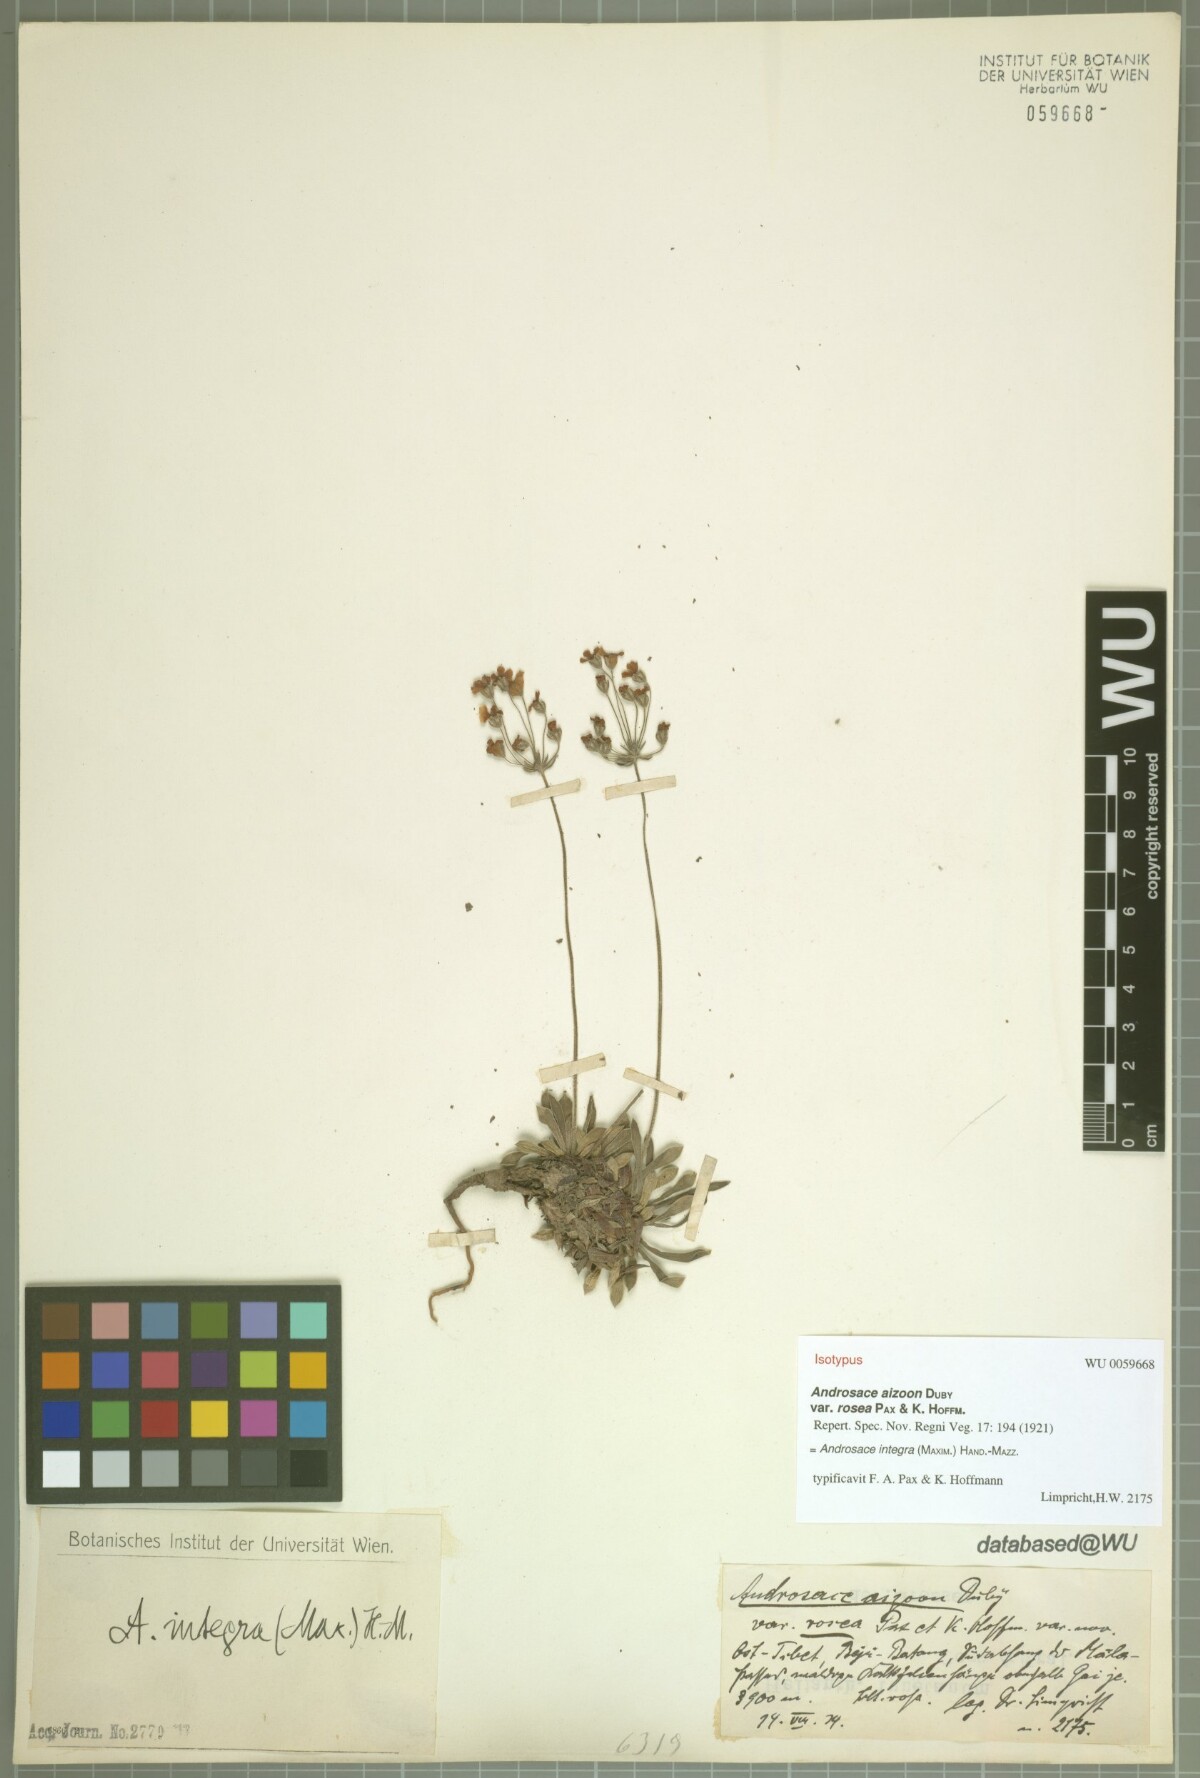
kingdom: Plantae
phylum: Tracheophyta
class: Magnoliopsida
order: Ericales
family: Primulaceae
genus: Androsace
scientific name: Androsace integra
